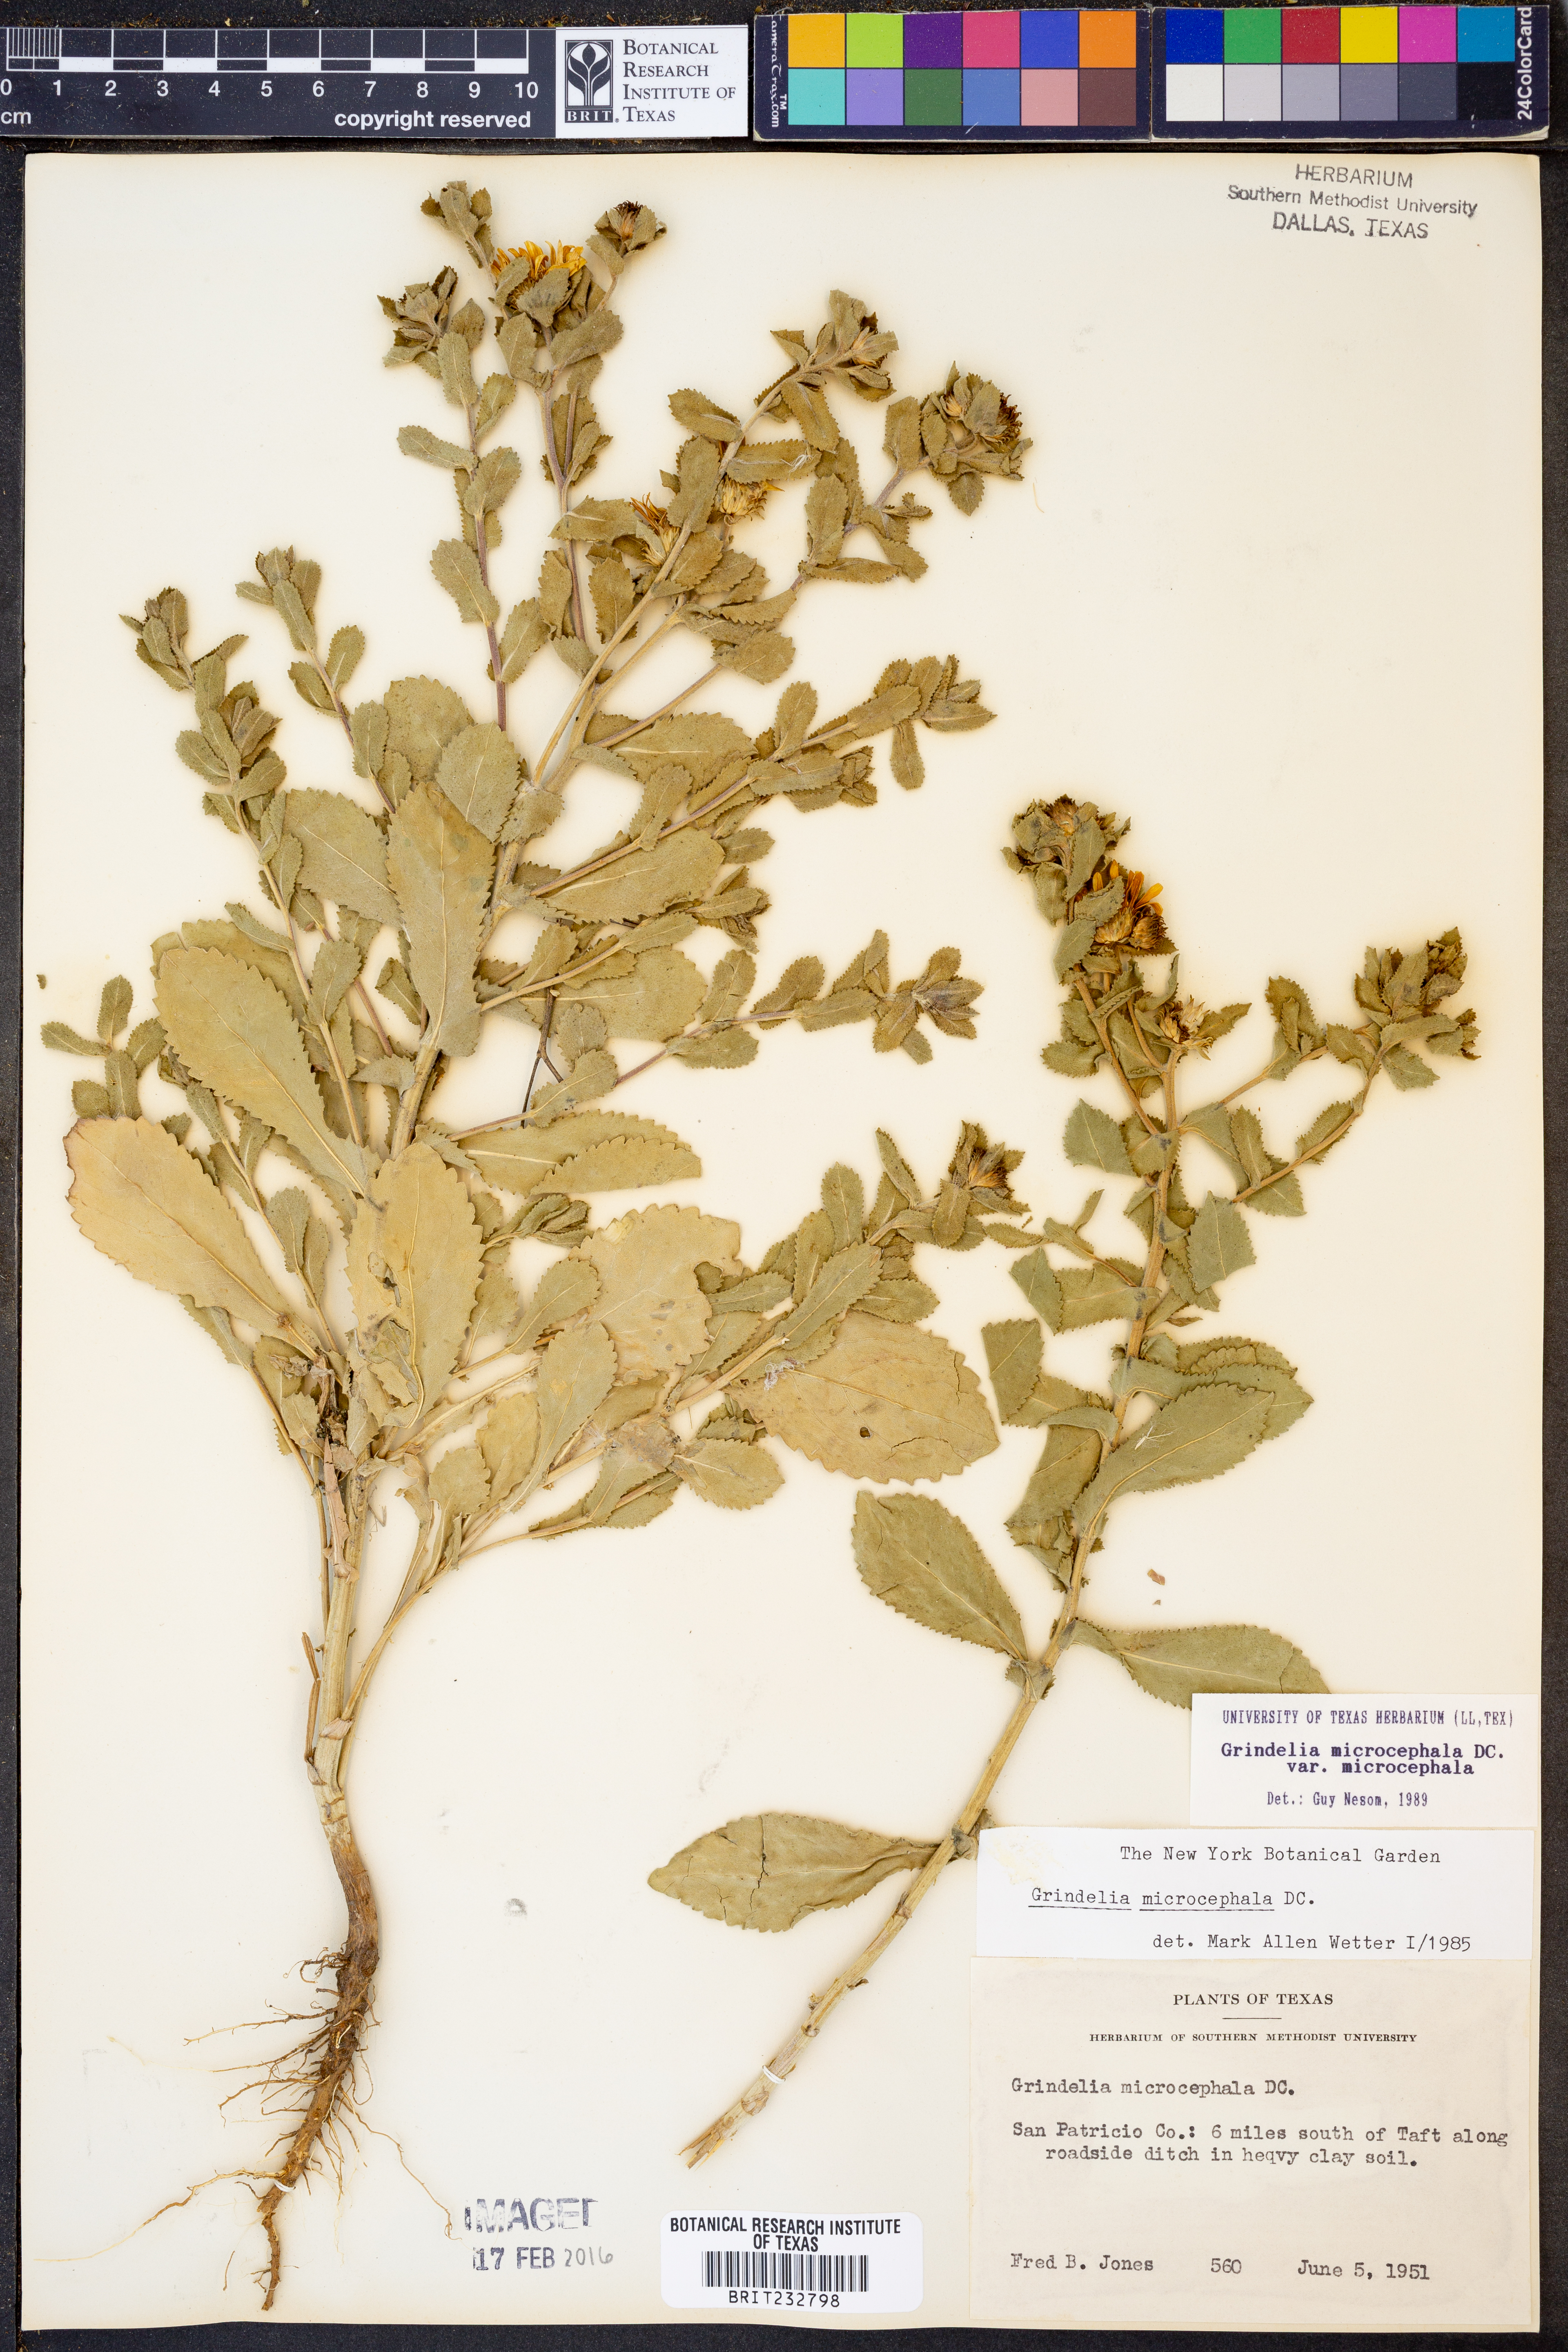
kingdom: Plantae
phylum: Tracheophyta
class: Magnoliopsida
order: Asterales
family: Asteraceae
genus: Grindelia
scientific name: Grindelia microcephala
